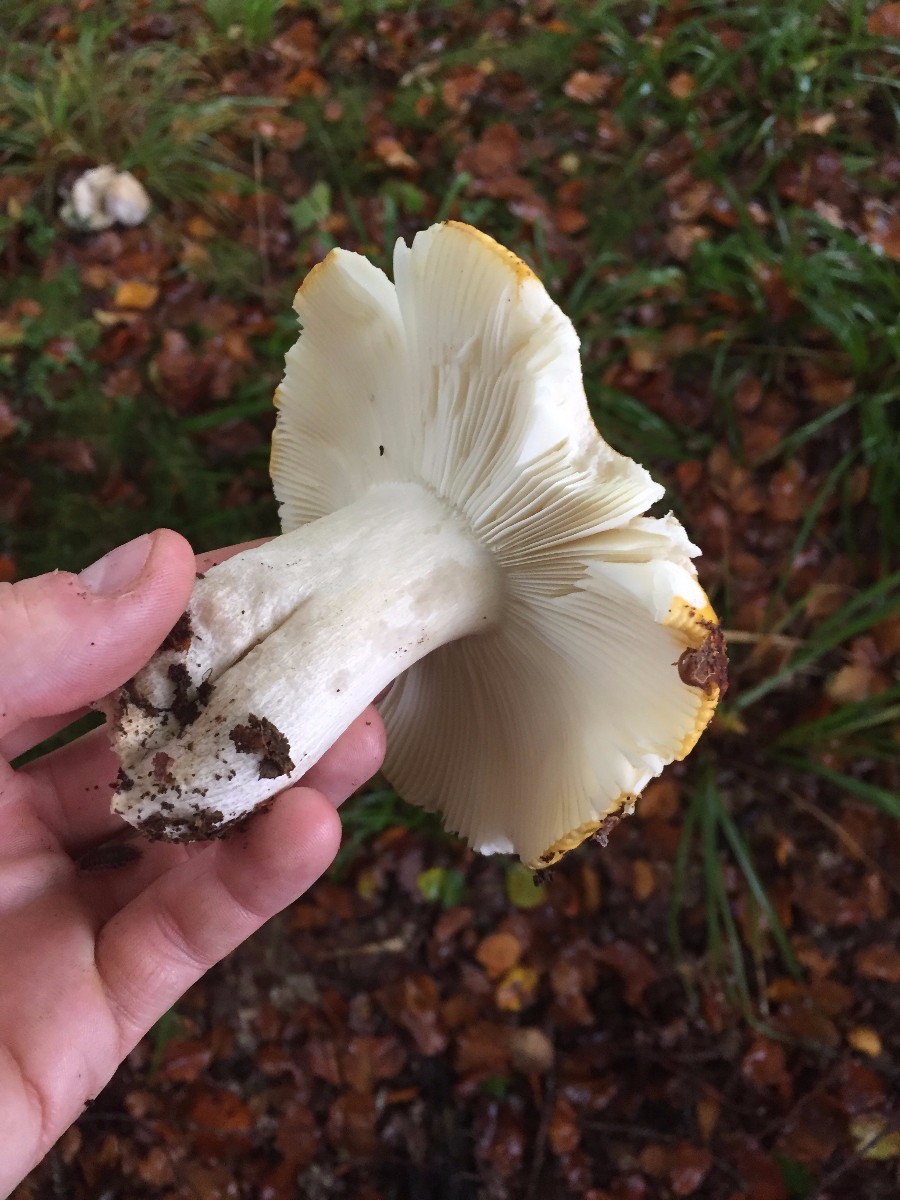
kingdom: Fungi
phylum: Basidiomycota
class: Agaricomycetes
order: Russulales
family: Russulaceae
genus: Russula
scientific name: Russula ochroleuca
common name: okkergul skørhat
